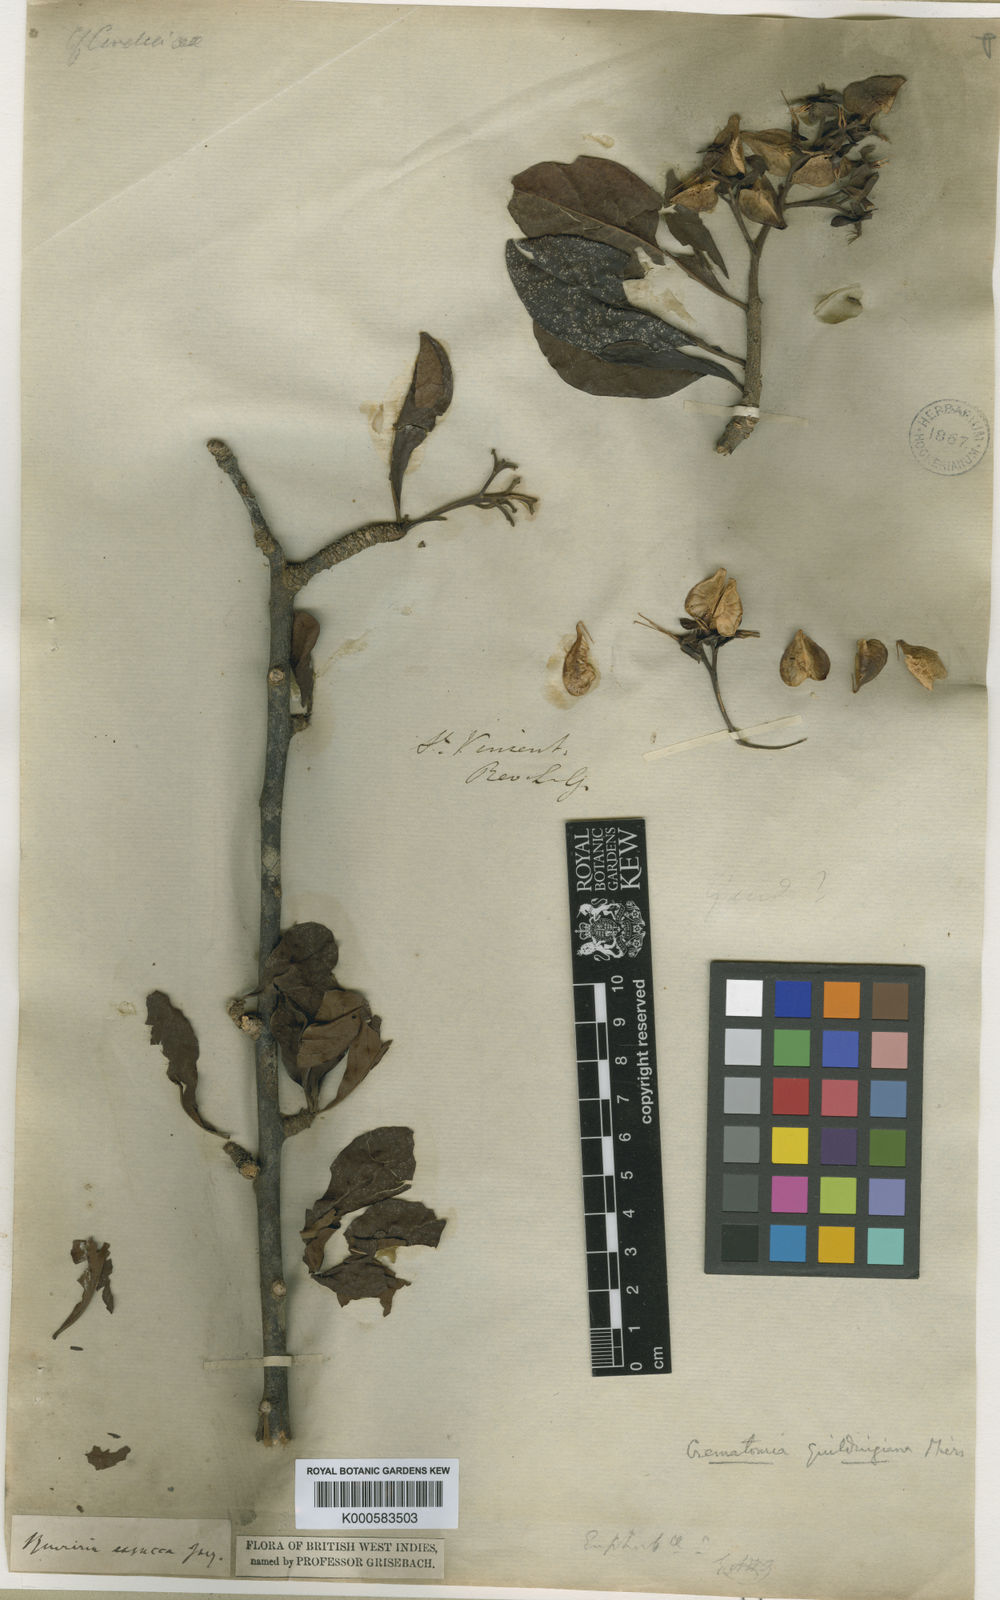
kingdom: Plantae
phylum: Tracheophyta
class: Magnoliopsida
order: Boraginales
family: Ehretiaceae
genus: Bourreria
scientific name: Bourreria
